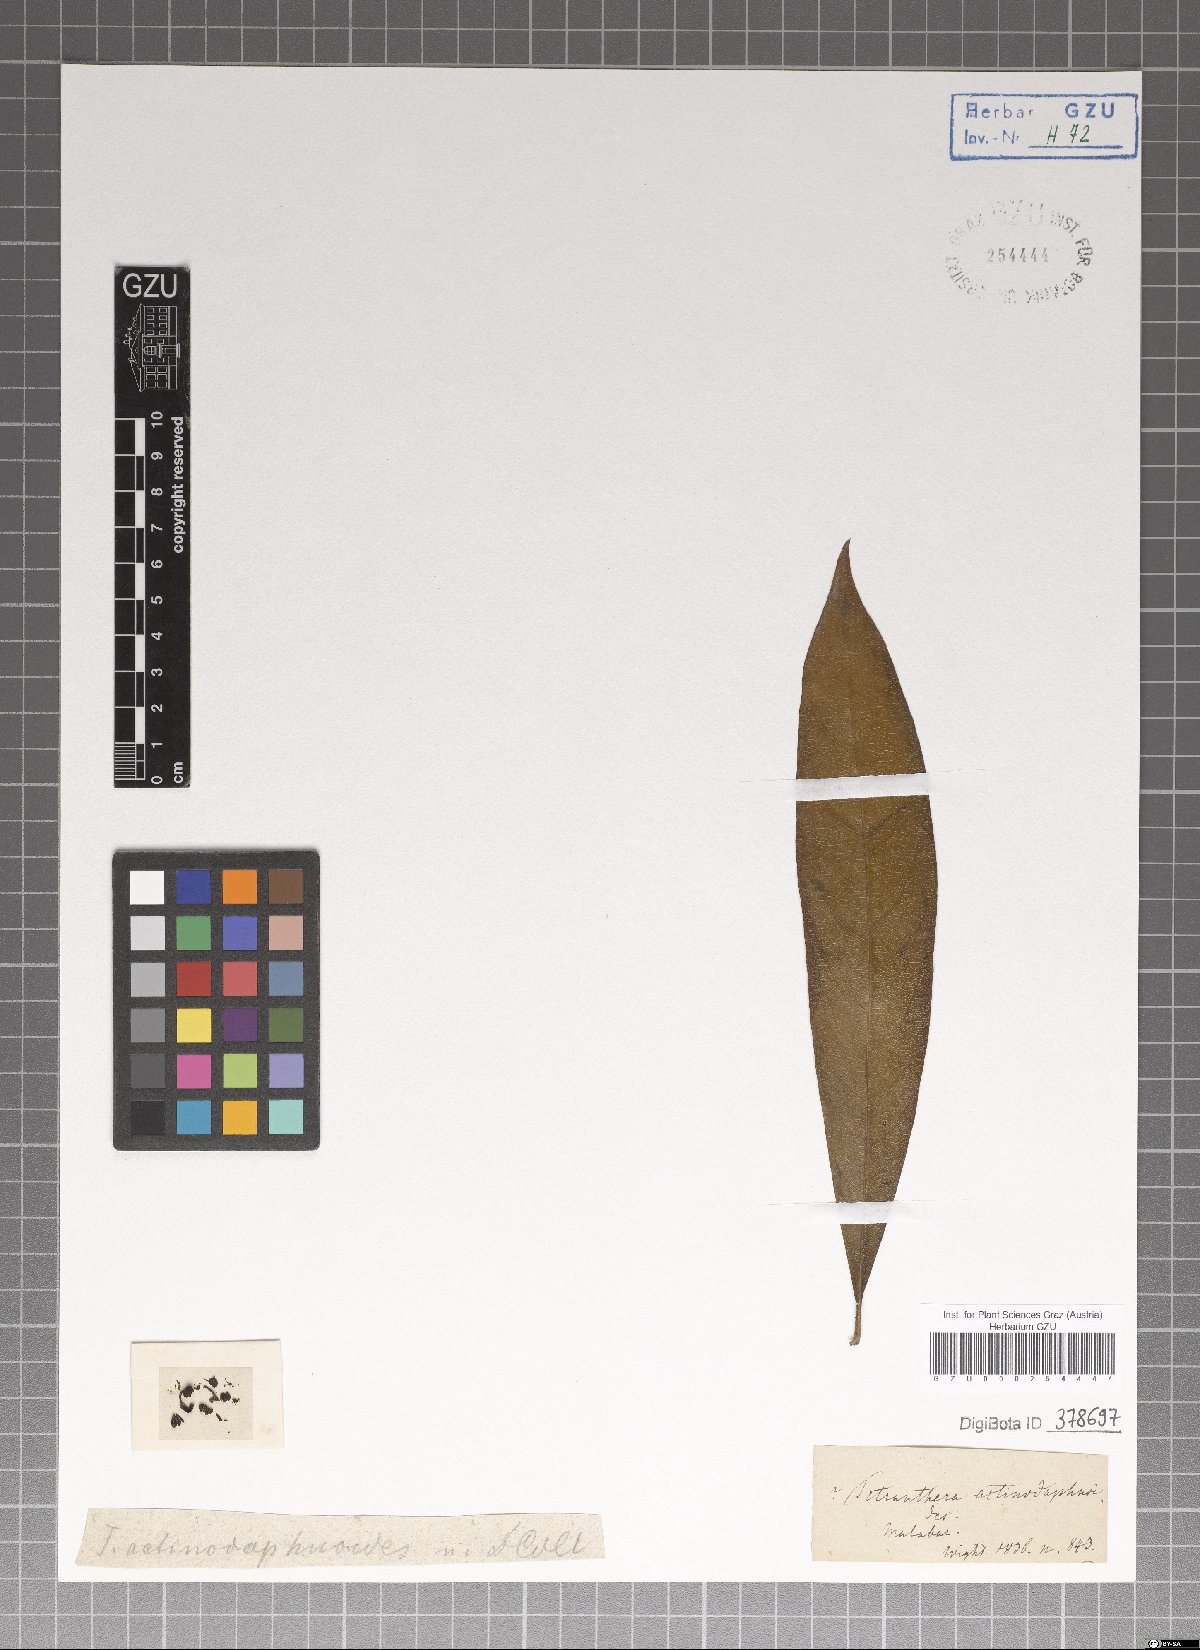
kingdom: Plantae
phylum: Tracheophyta
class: Magnoliopsida
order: Laurales
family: Lauraceae
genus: Litsea
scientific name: Litsea
